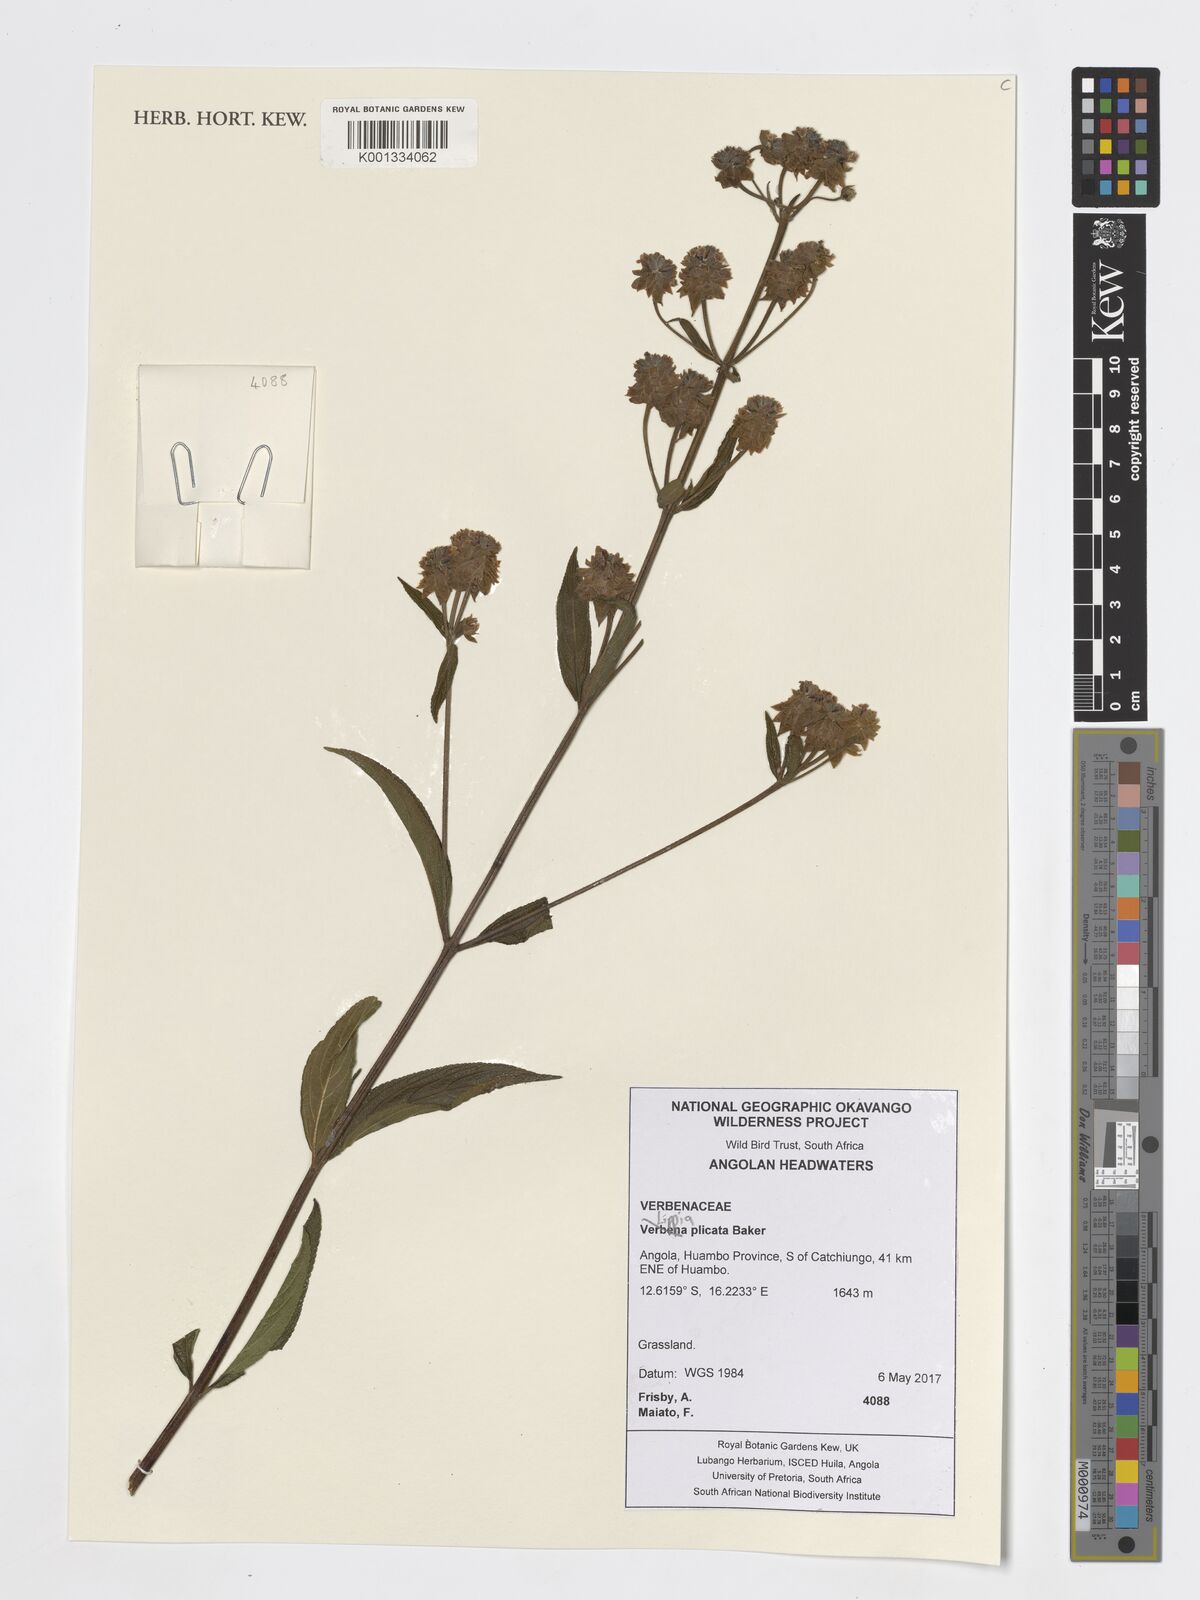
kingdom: Plantae
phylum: Tracheophyta
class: Magnoliopsida
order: Lamiales
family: Verbenaceae
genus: Lippia
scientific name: Lippia plicata
